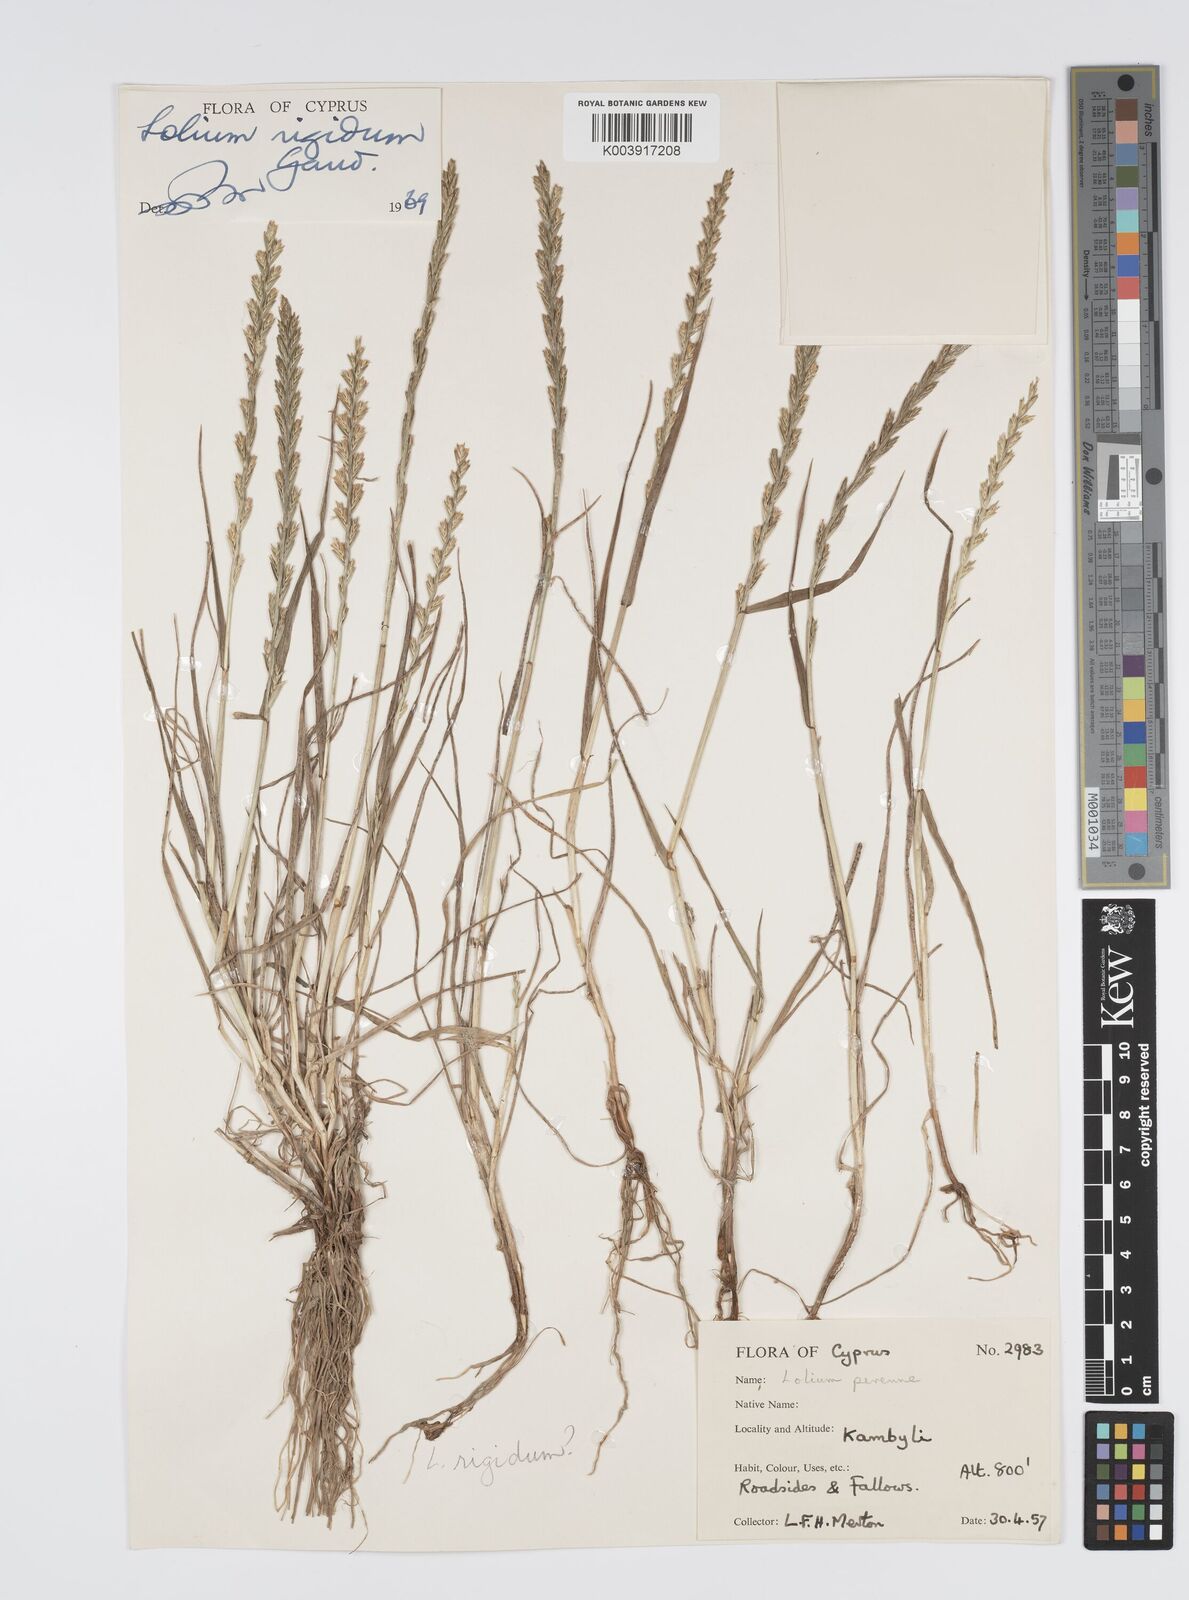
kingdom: Plantae
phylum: Tracheophyta
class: Liliopsida
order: Poales
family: Poaceae
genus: Lolium
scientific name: Lolium rigidum
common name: Wimmera ryegrass
